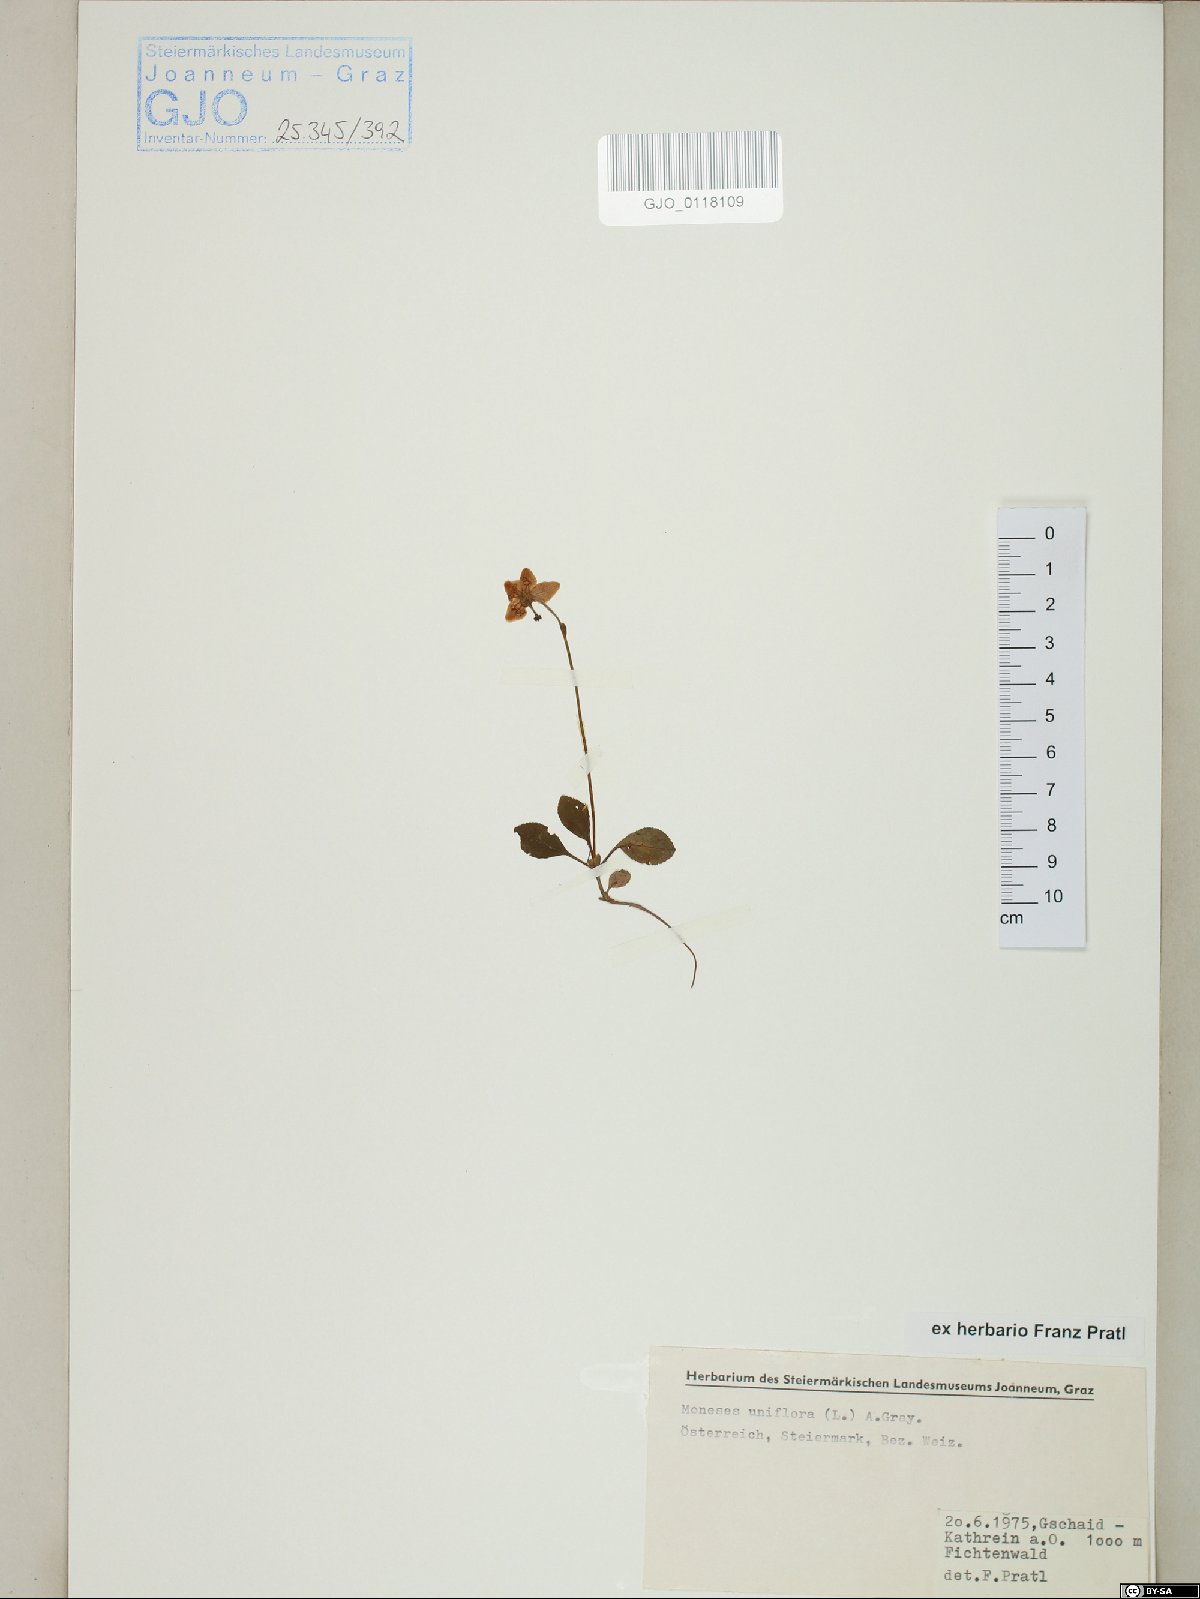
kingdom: Plantae
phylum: Tracheophyta
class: Magnoliopsida
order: Ericales
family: Ericaceae
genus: Moneses
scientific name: Moneses uniflora
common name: One-flowered wintergreen
